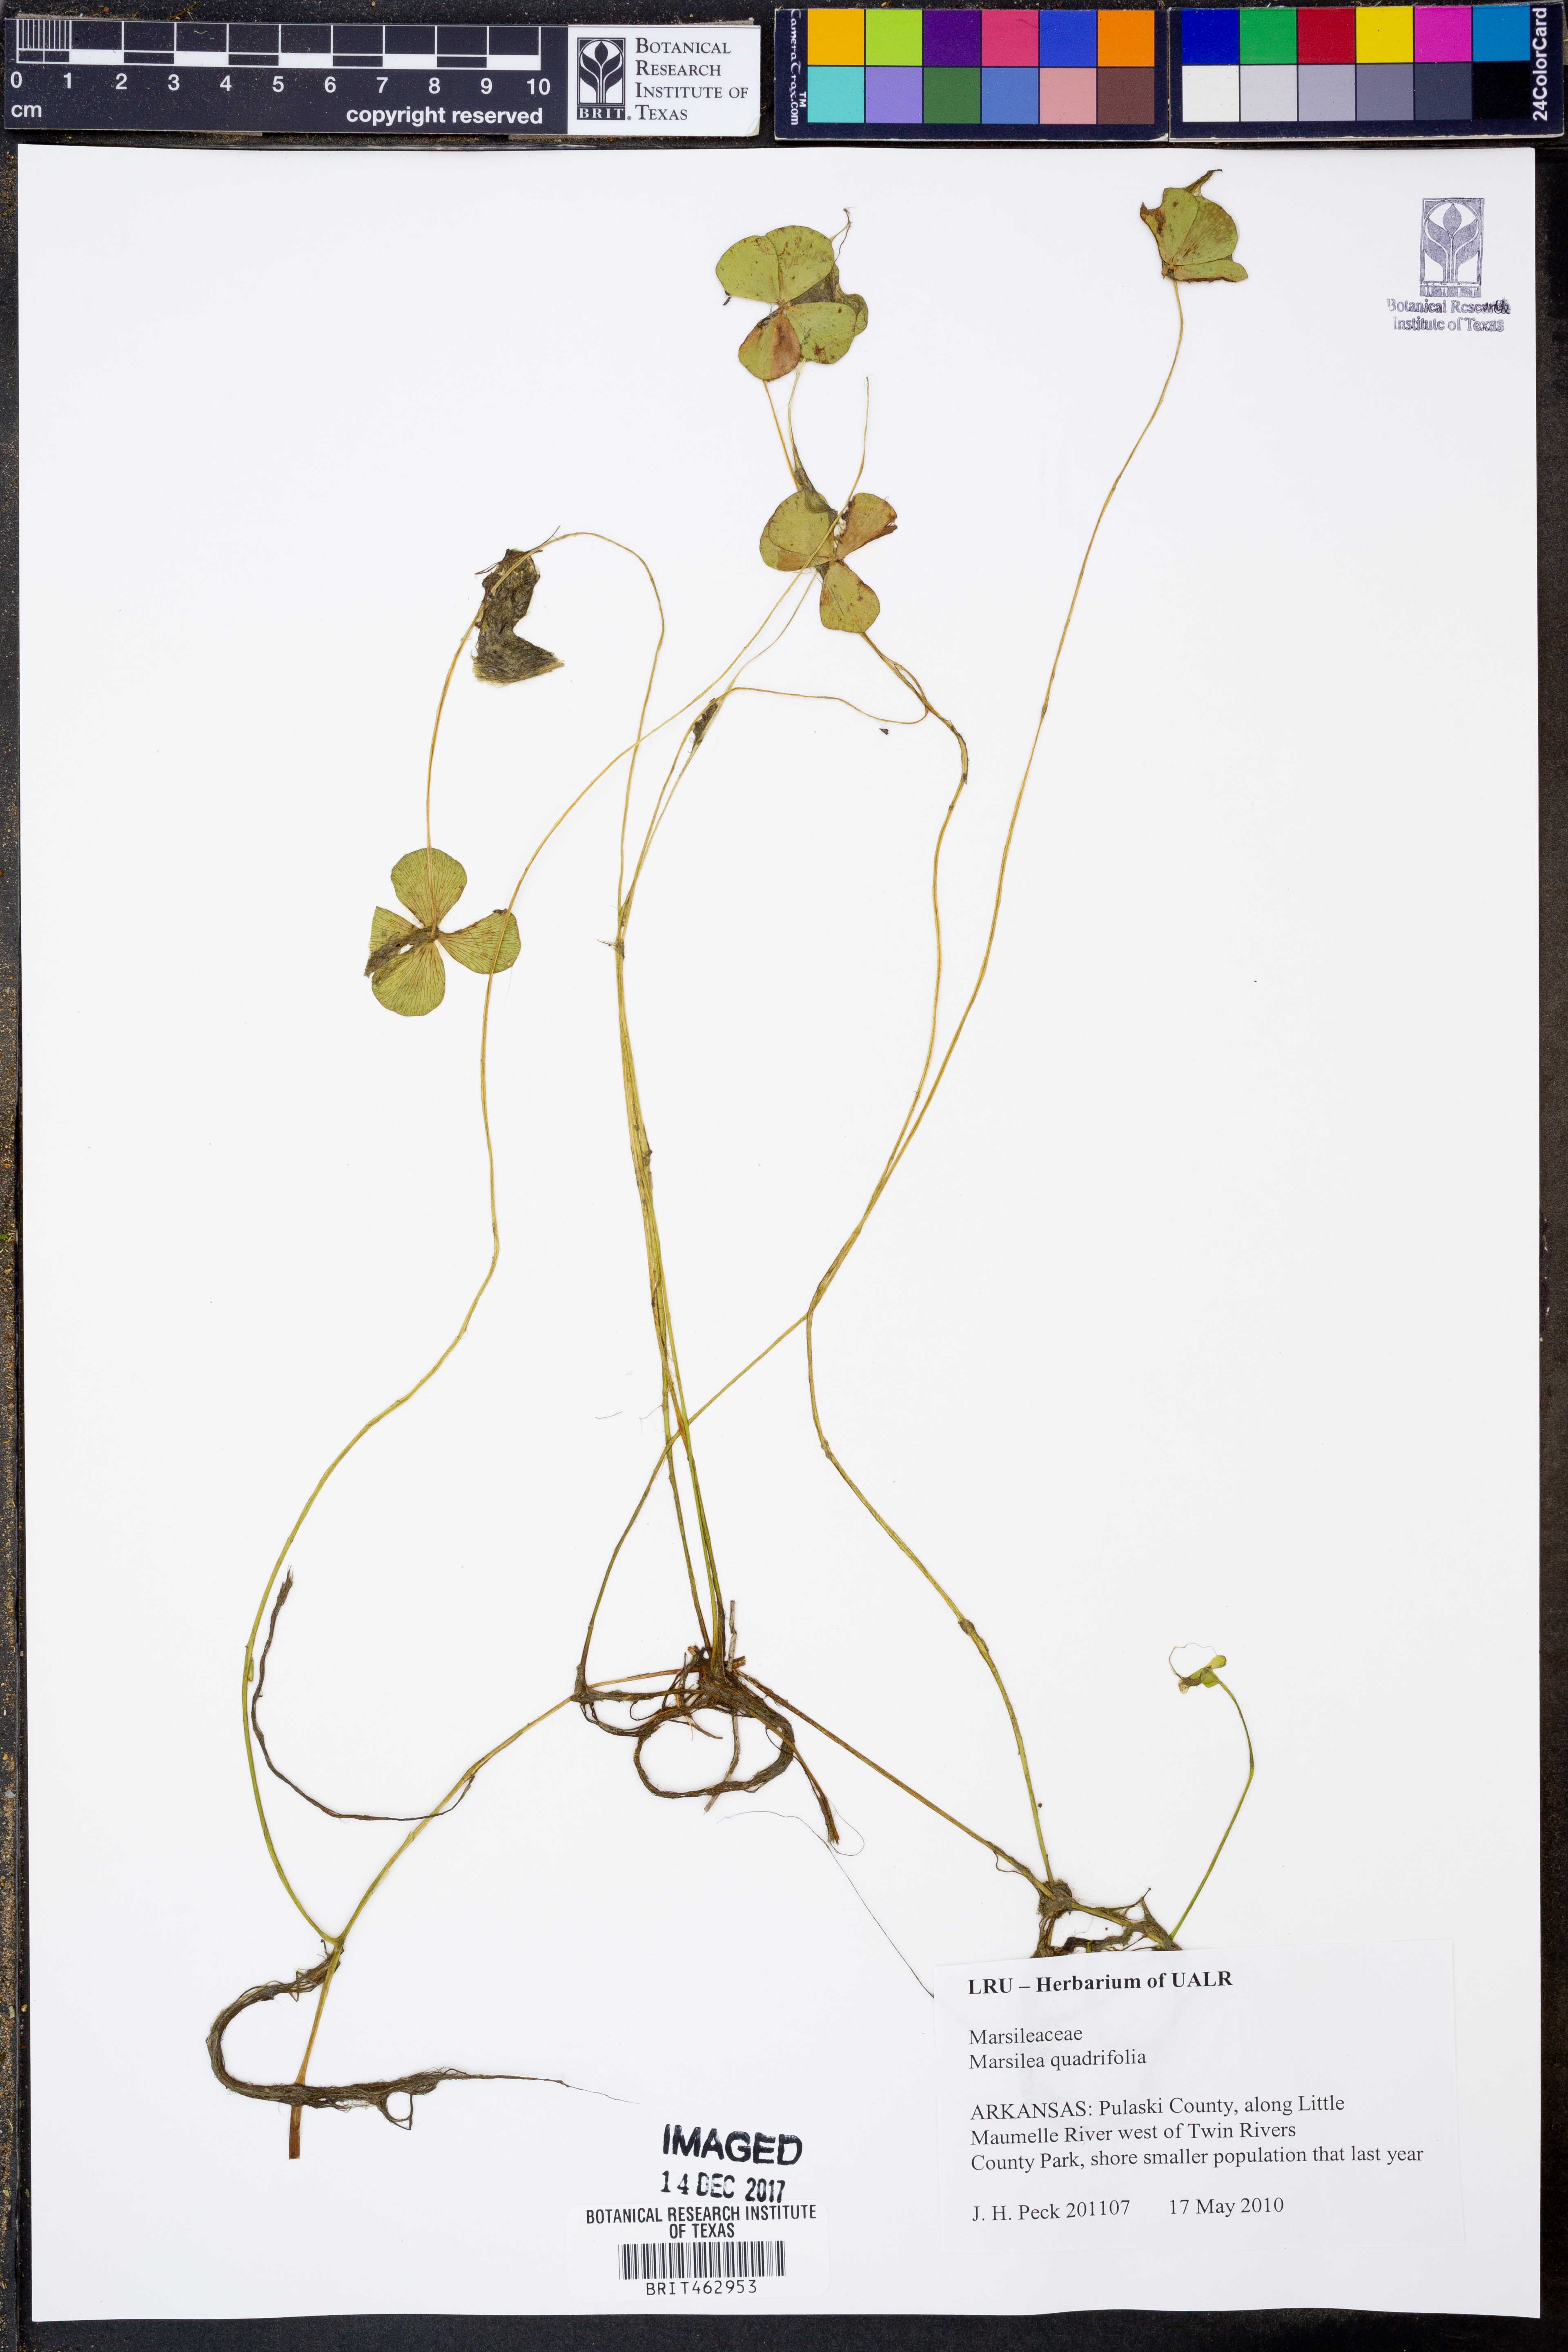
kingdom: Plantae
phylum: Tracheophyta
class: Polypodiopsida
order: Salviniales
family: Marsileaceae
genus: Marsilea
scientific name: Marsilea quadrifolia
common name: Water shamrock
